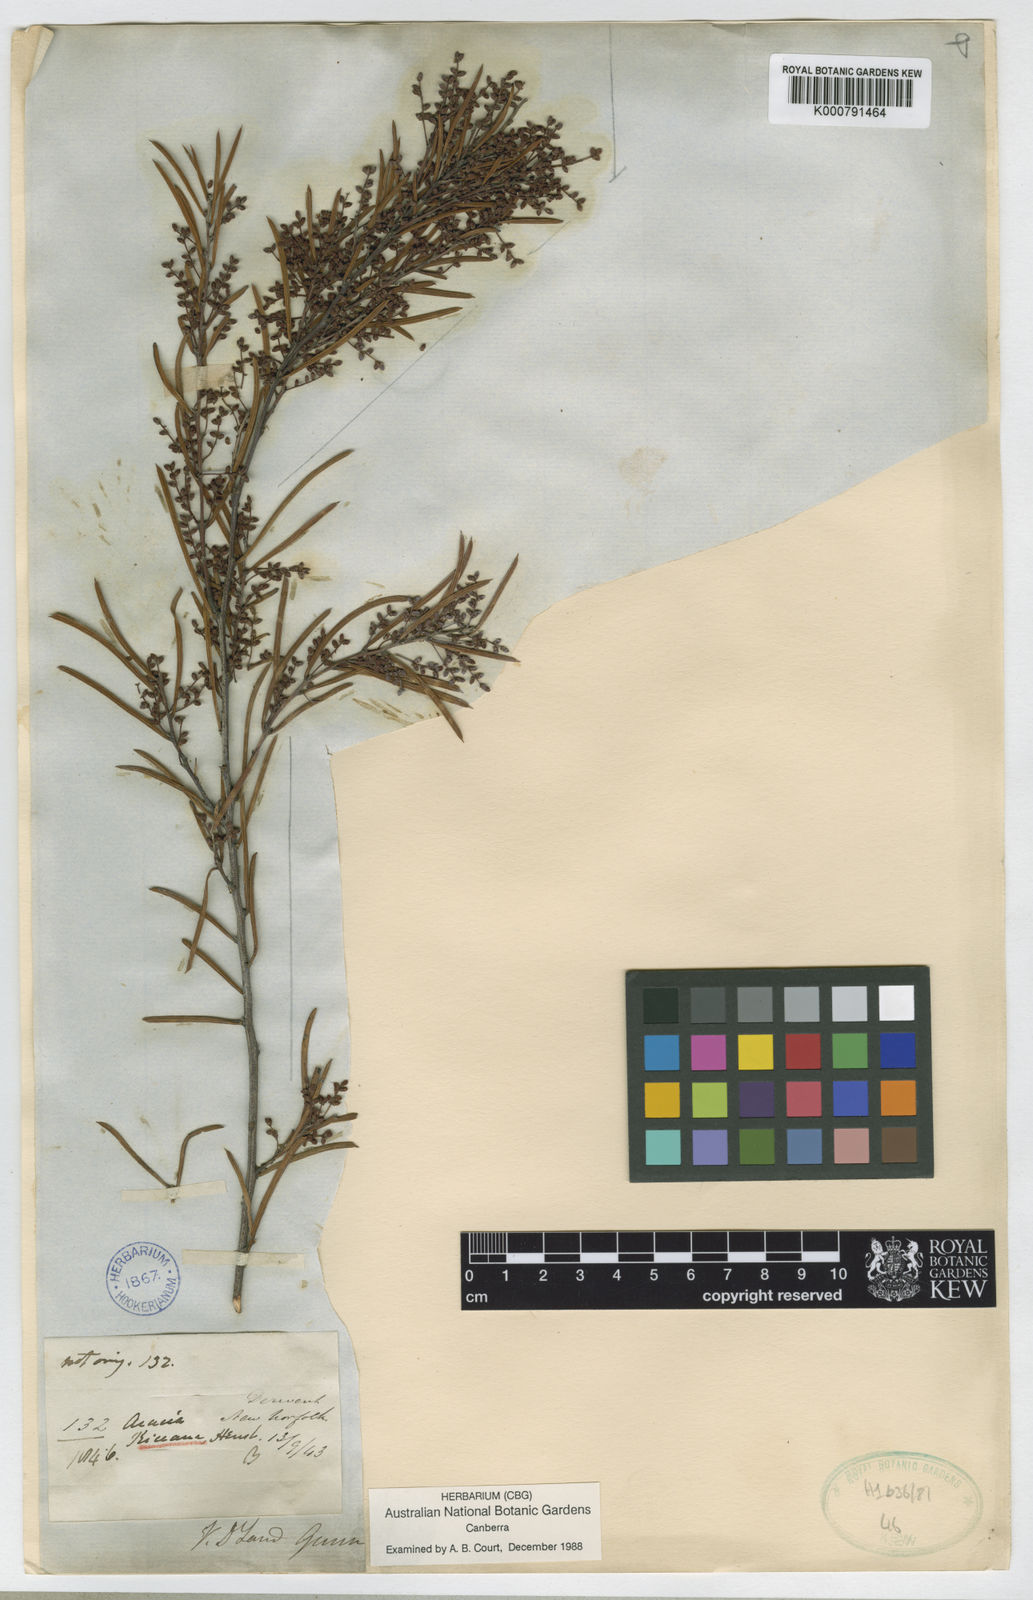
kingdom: Plantae
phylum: Tracheophyta
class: Magnoliopsida
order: Fabales
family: Fabaceae
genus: Acacia
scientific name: Acacia riceana
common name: Rice's wattle
